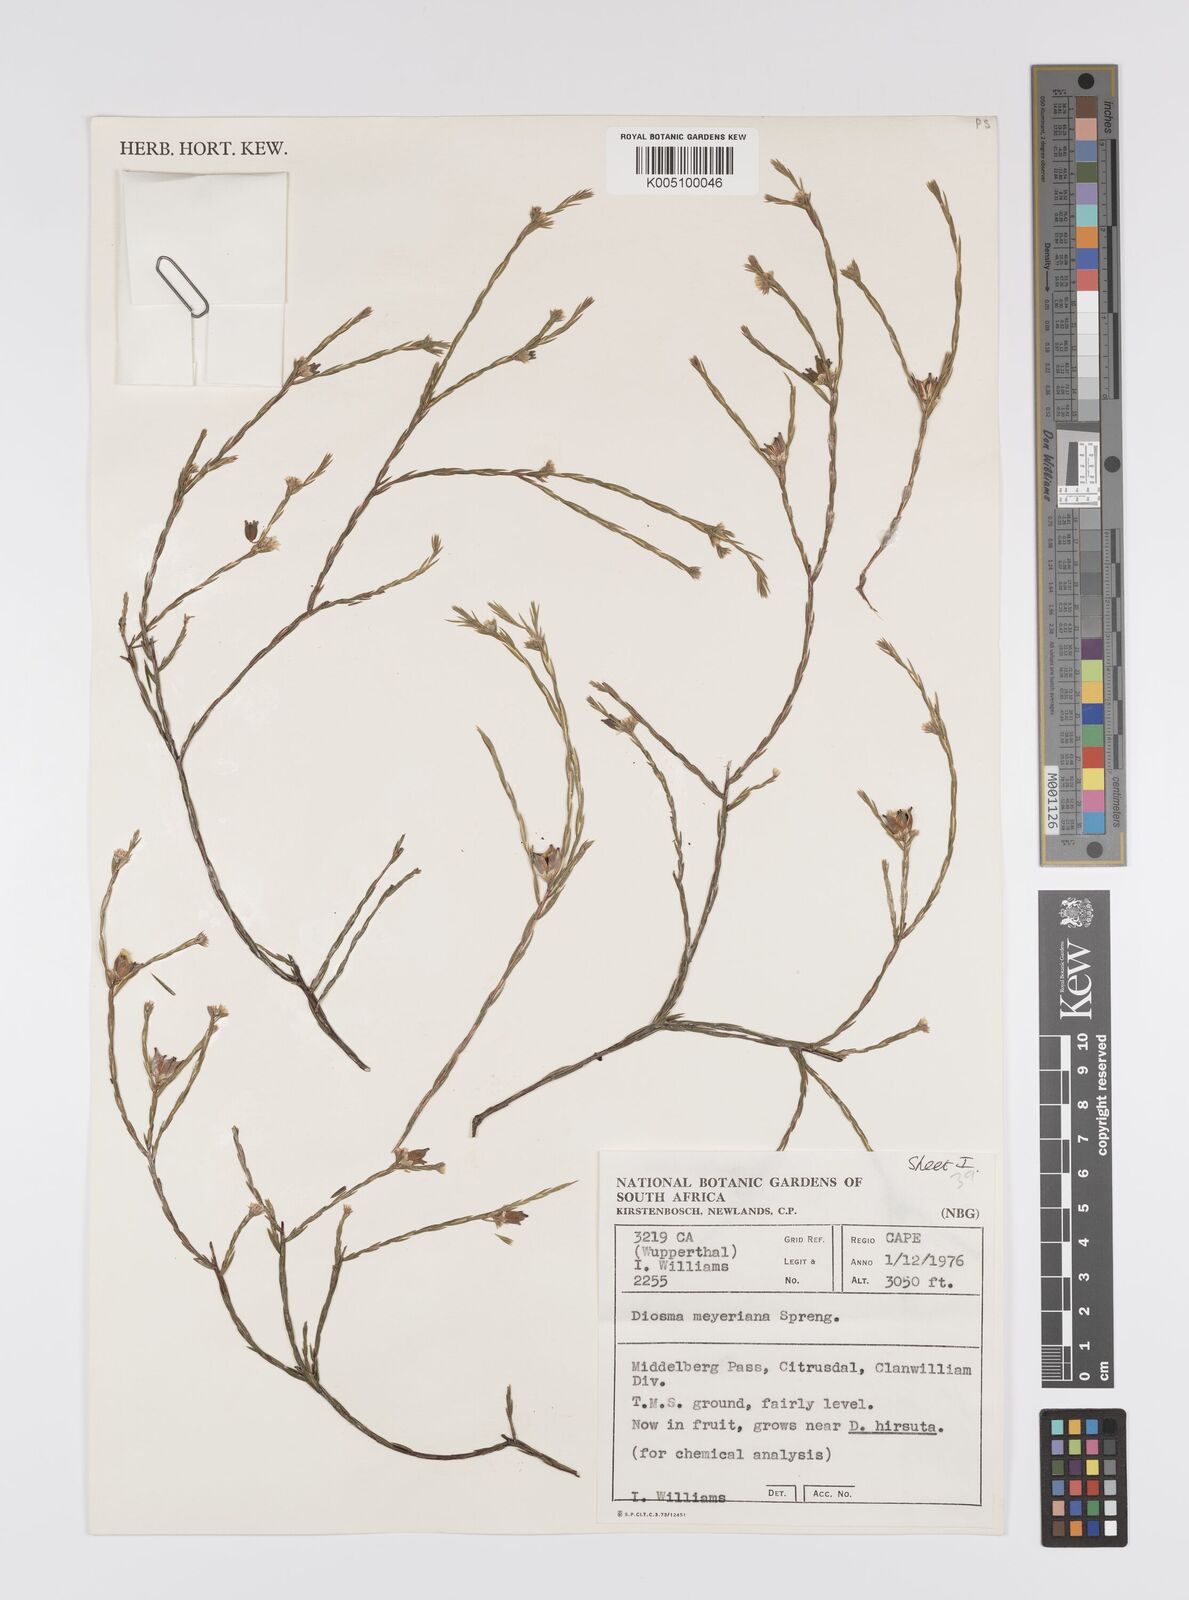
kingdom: Plantae
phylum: Tracheophyta
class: Magnoliopsida
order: Sapindales
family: Rutaceae
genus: Agathosma
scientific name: Agathosma virgata
